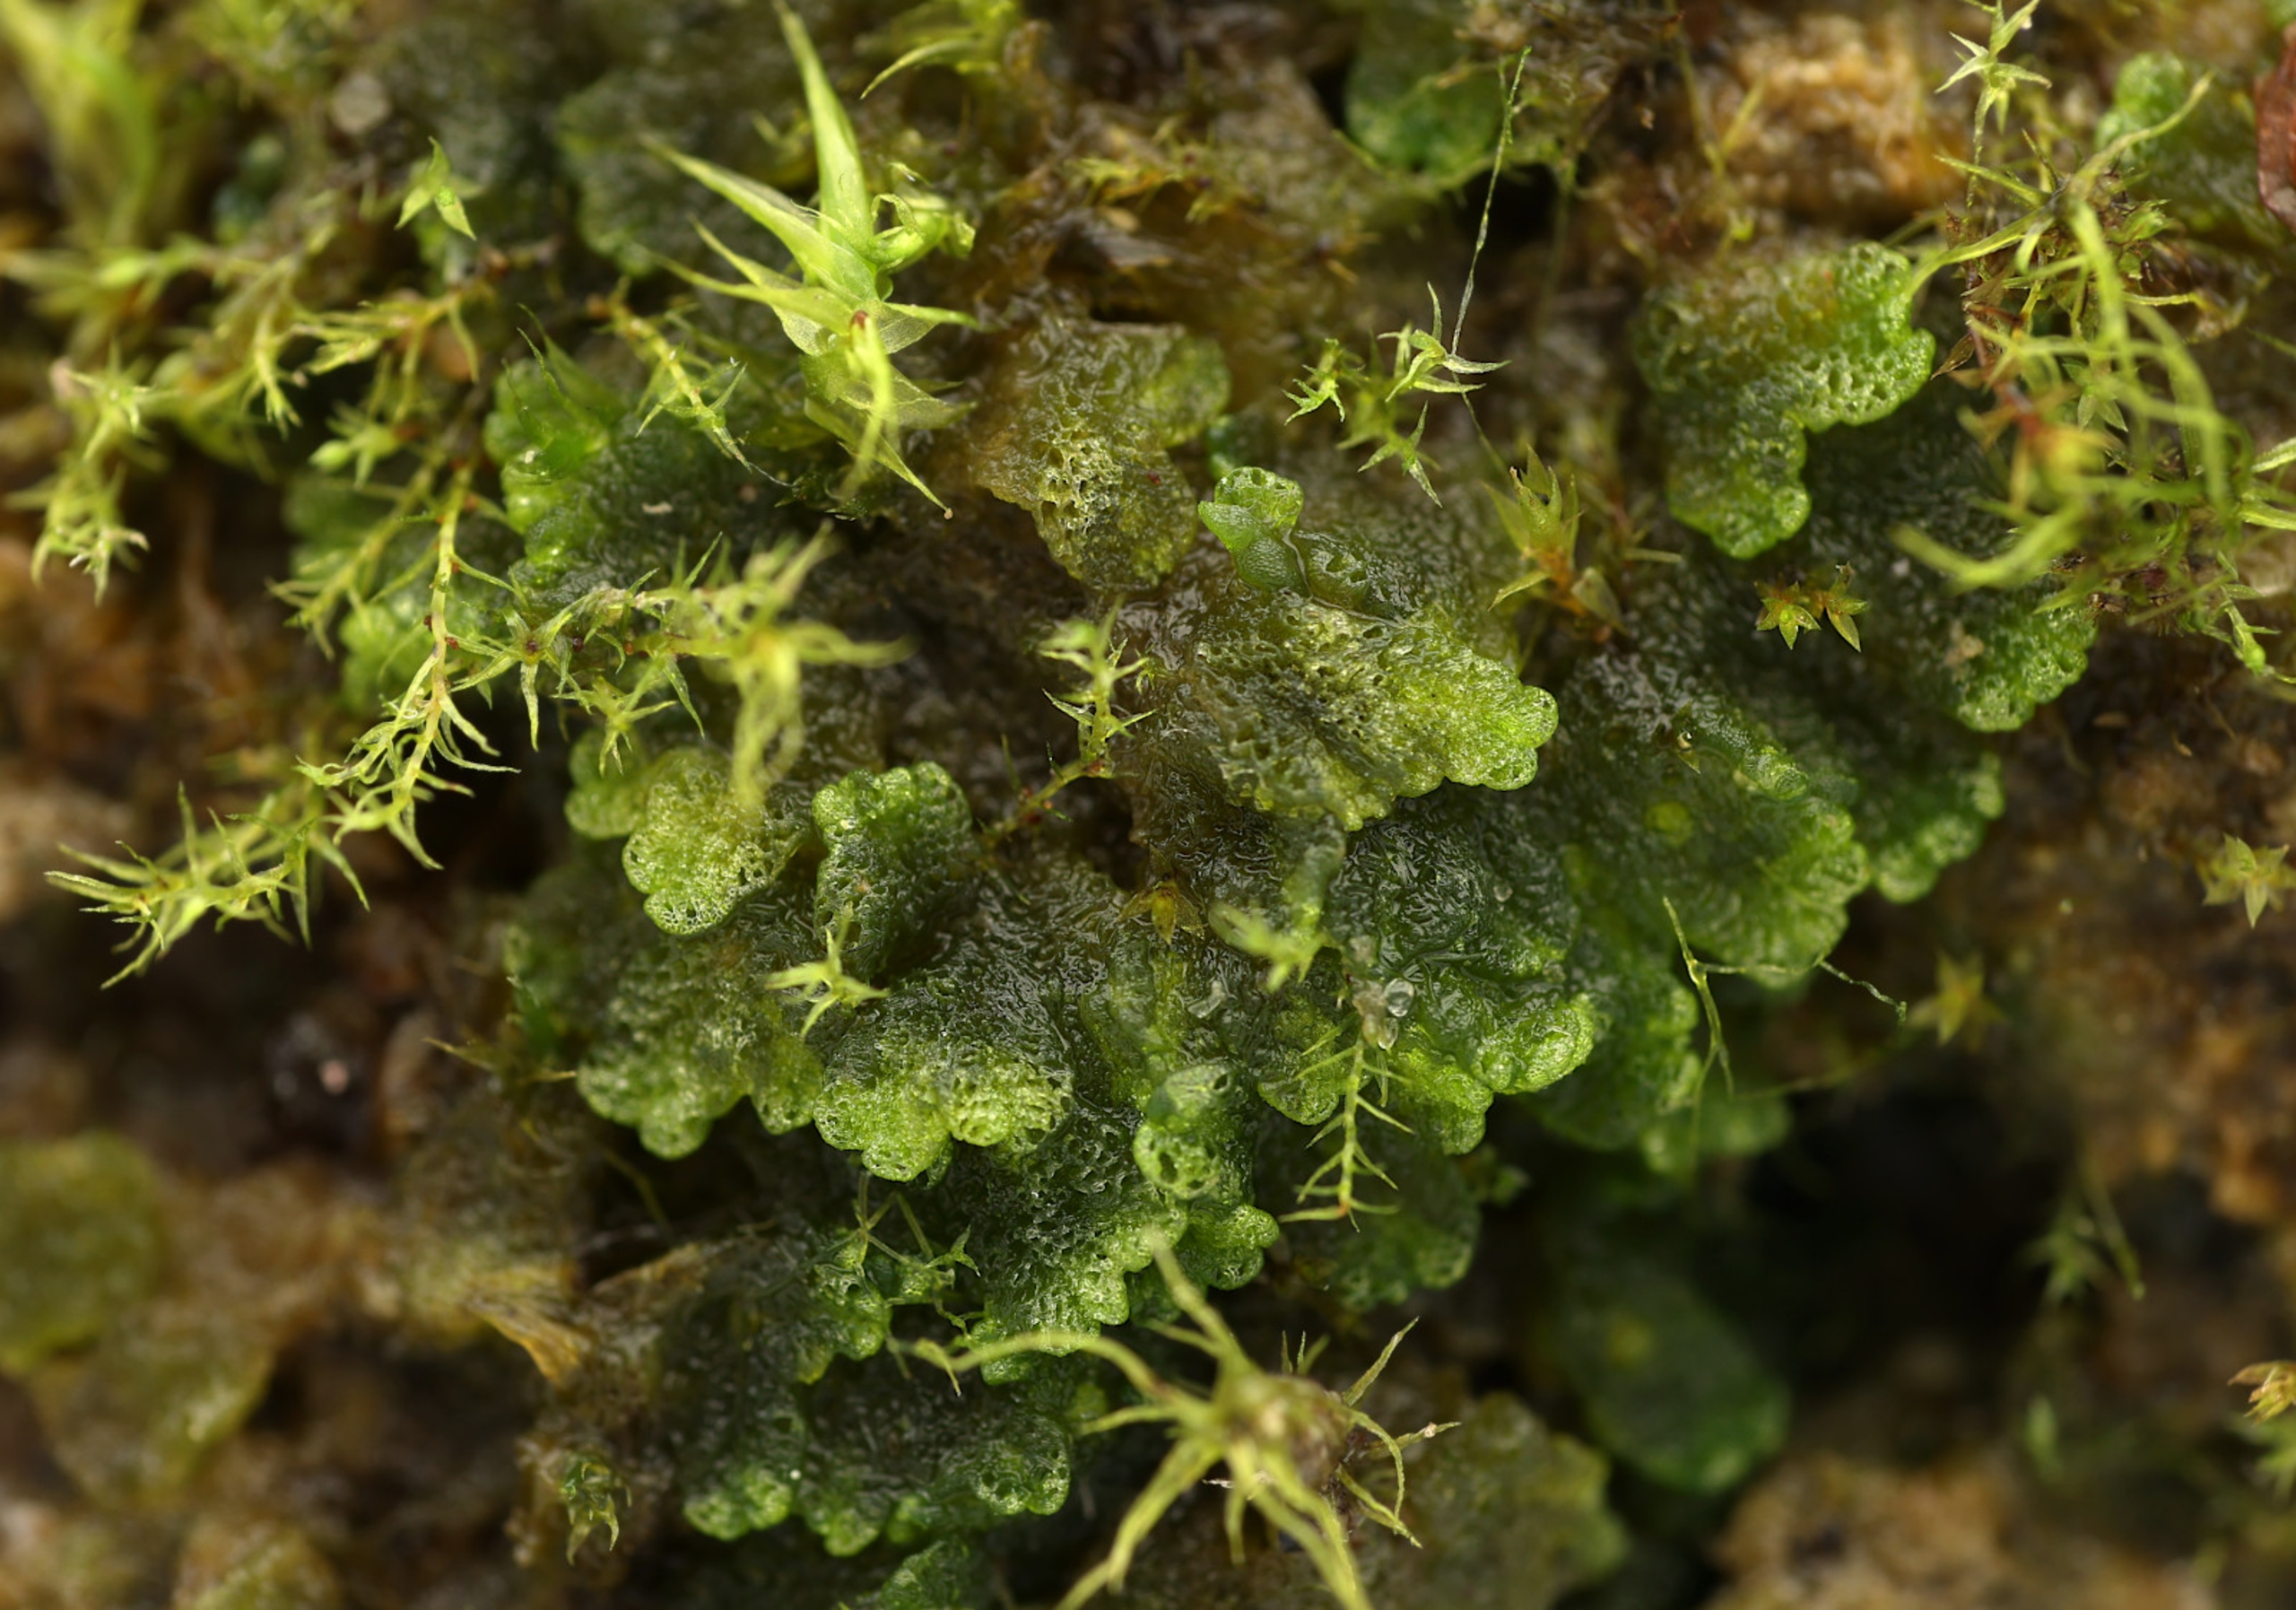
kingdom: Plantae
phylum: Marchantiophyta
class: Marchantiopsida
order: Marchantiales
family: Ricciaceae
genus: Riccia
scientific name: Riccia cavernosa
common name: Grubet stjerneløv
